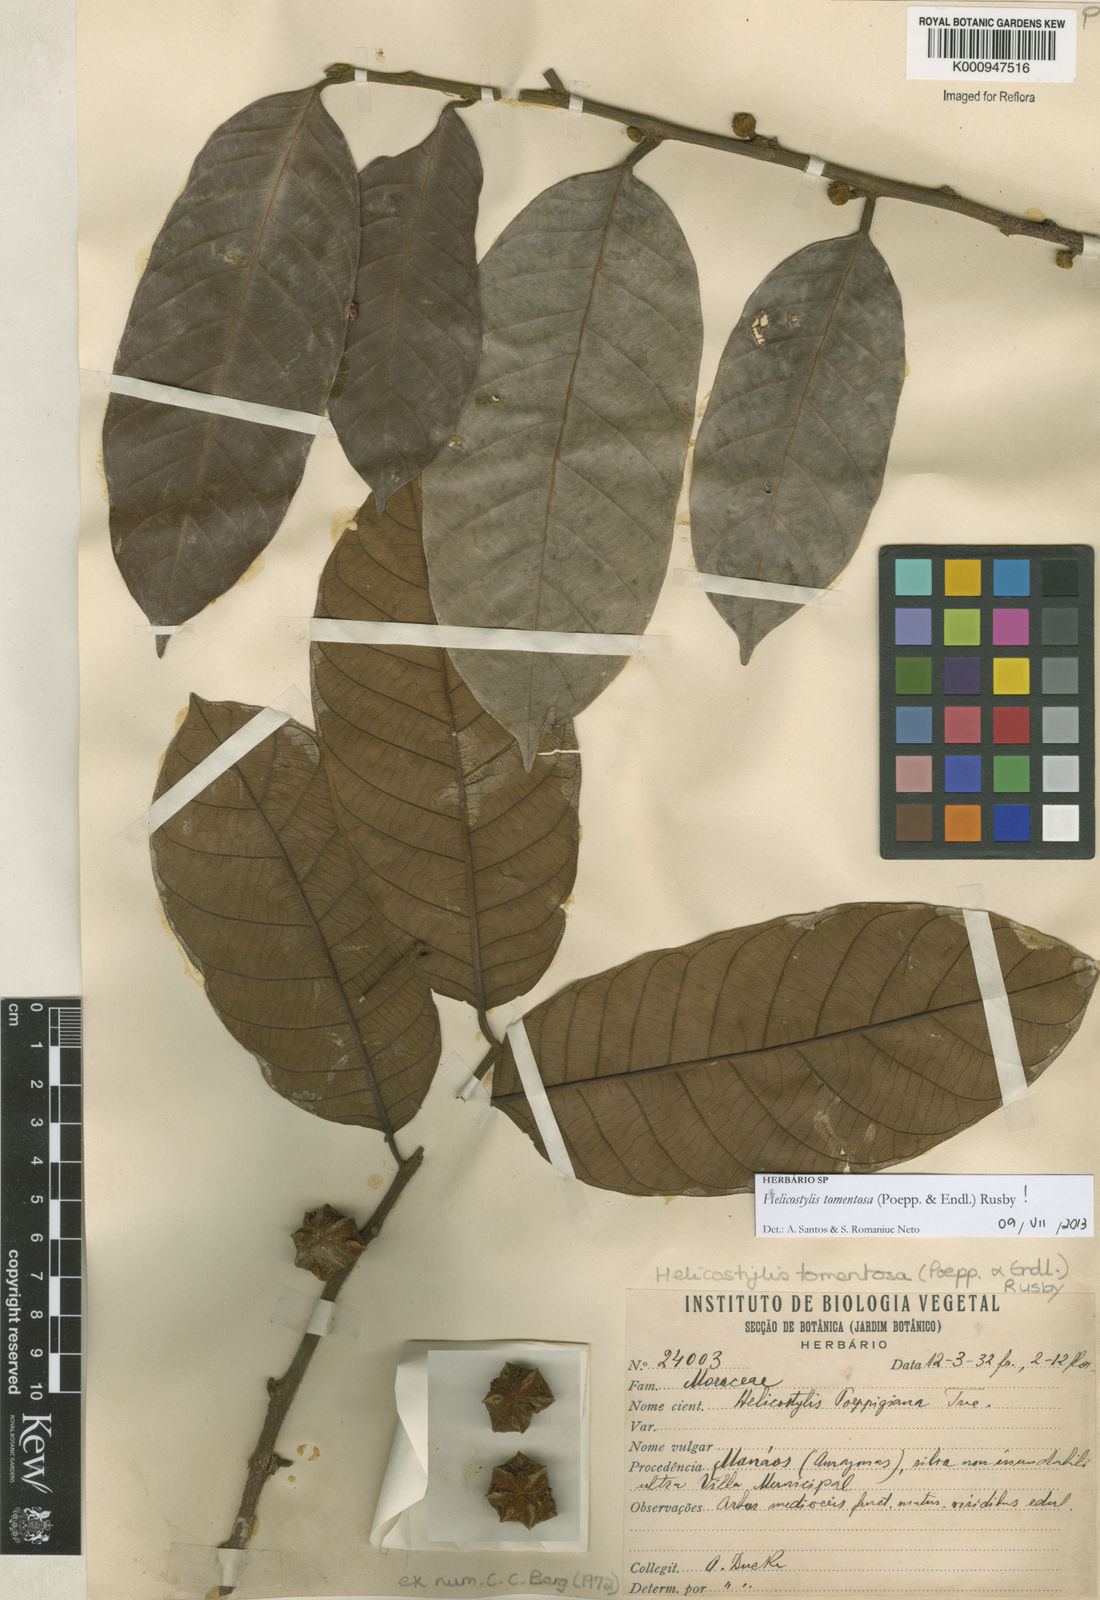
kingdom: Plantae
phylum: Tracheophyta
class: Magnoliopsida
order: Rosales
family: Moraceae
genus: Helicostylis
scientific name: Helicostylis
